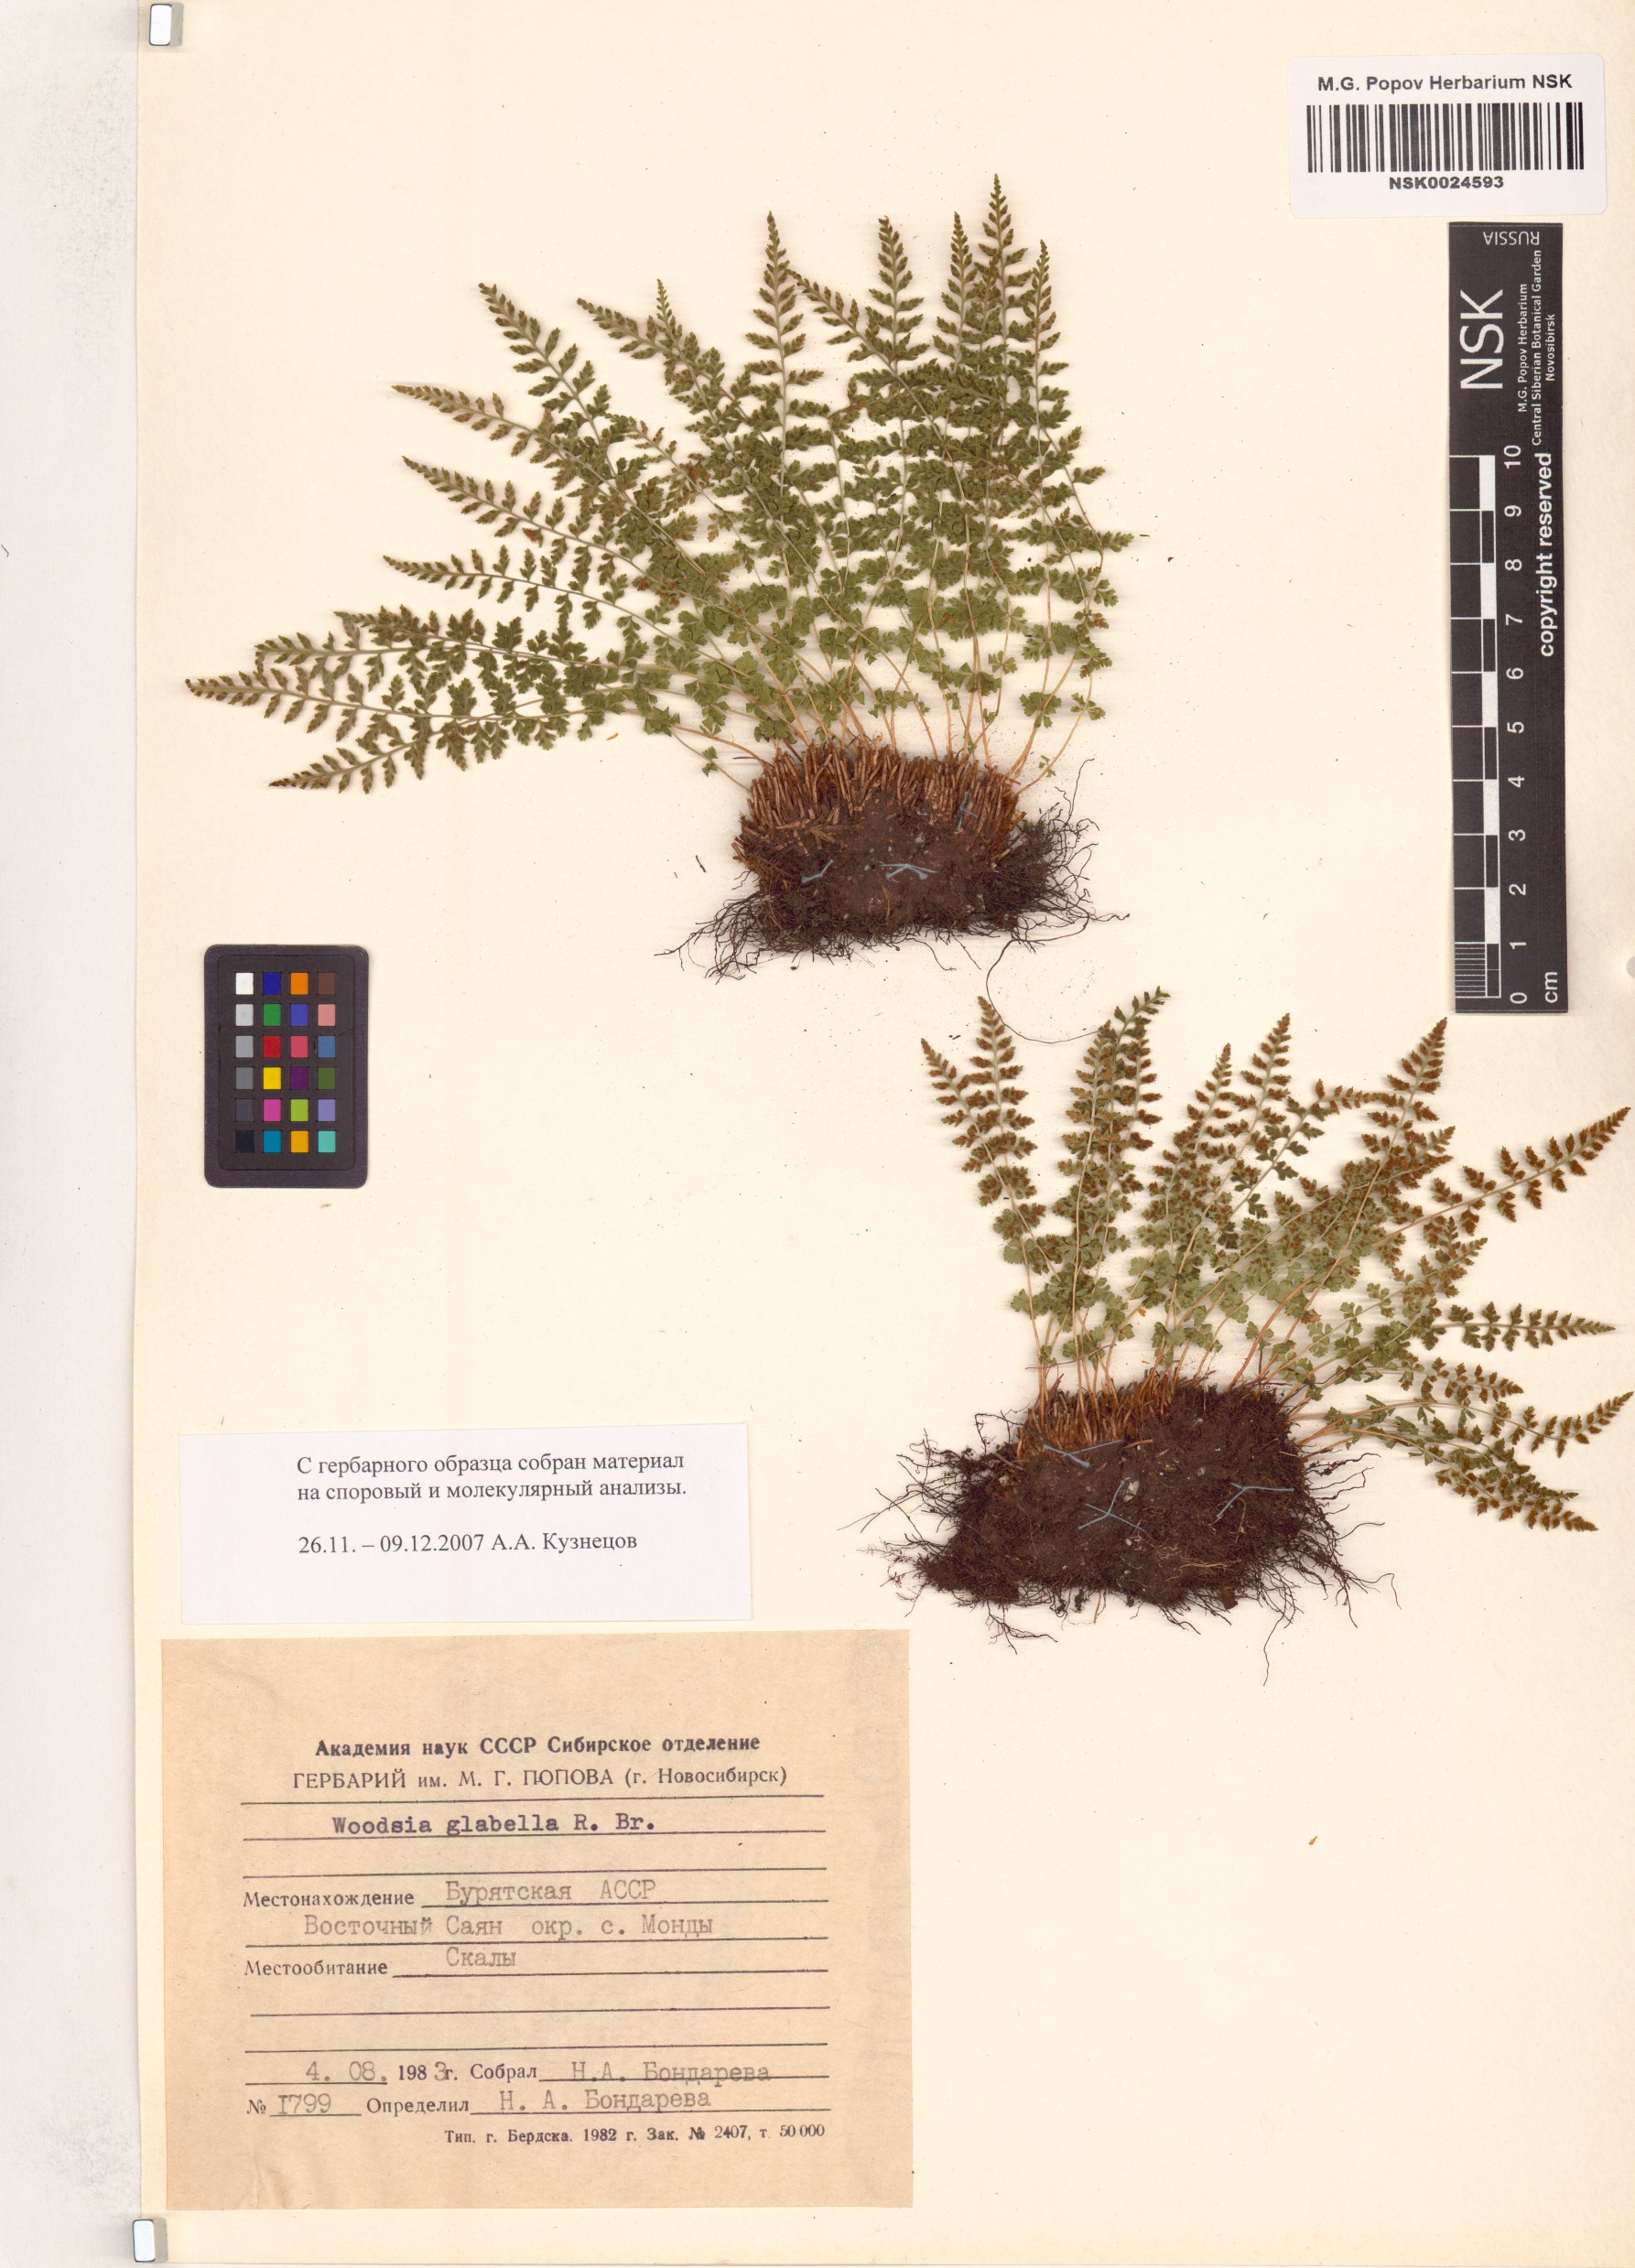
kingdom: Plantae
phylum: Tracheophyta
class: Polypodiopsida
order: Polypodiales
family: Woodsiaceae
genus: Woodsia
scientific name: Woodsia glabella
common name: Smooth woodsia
